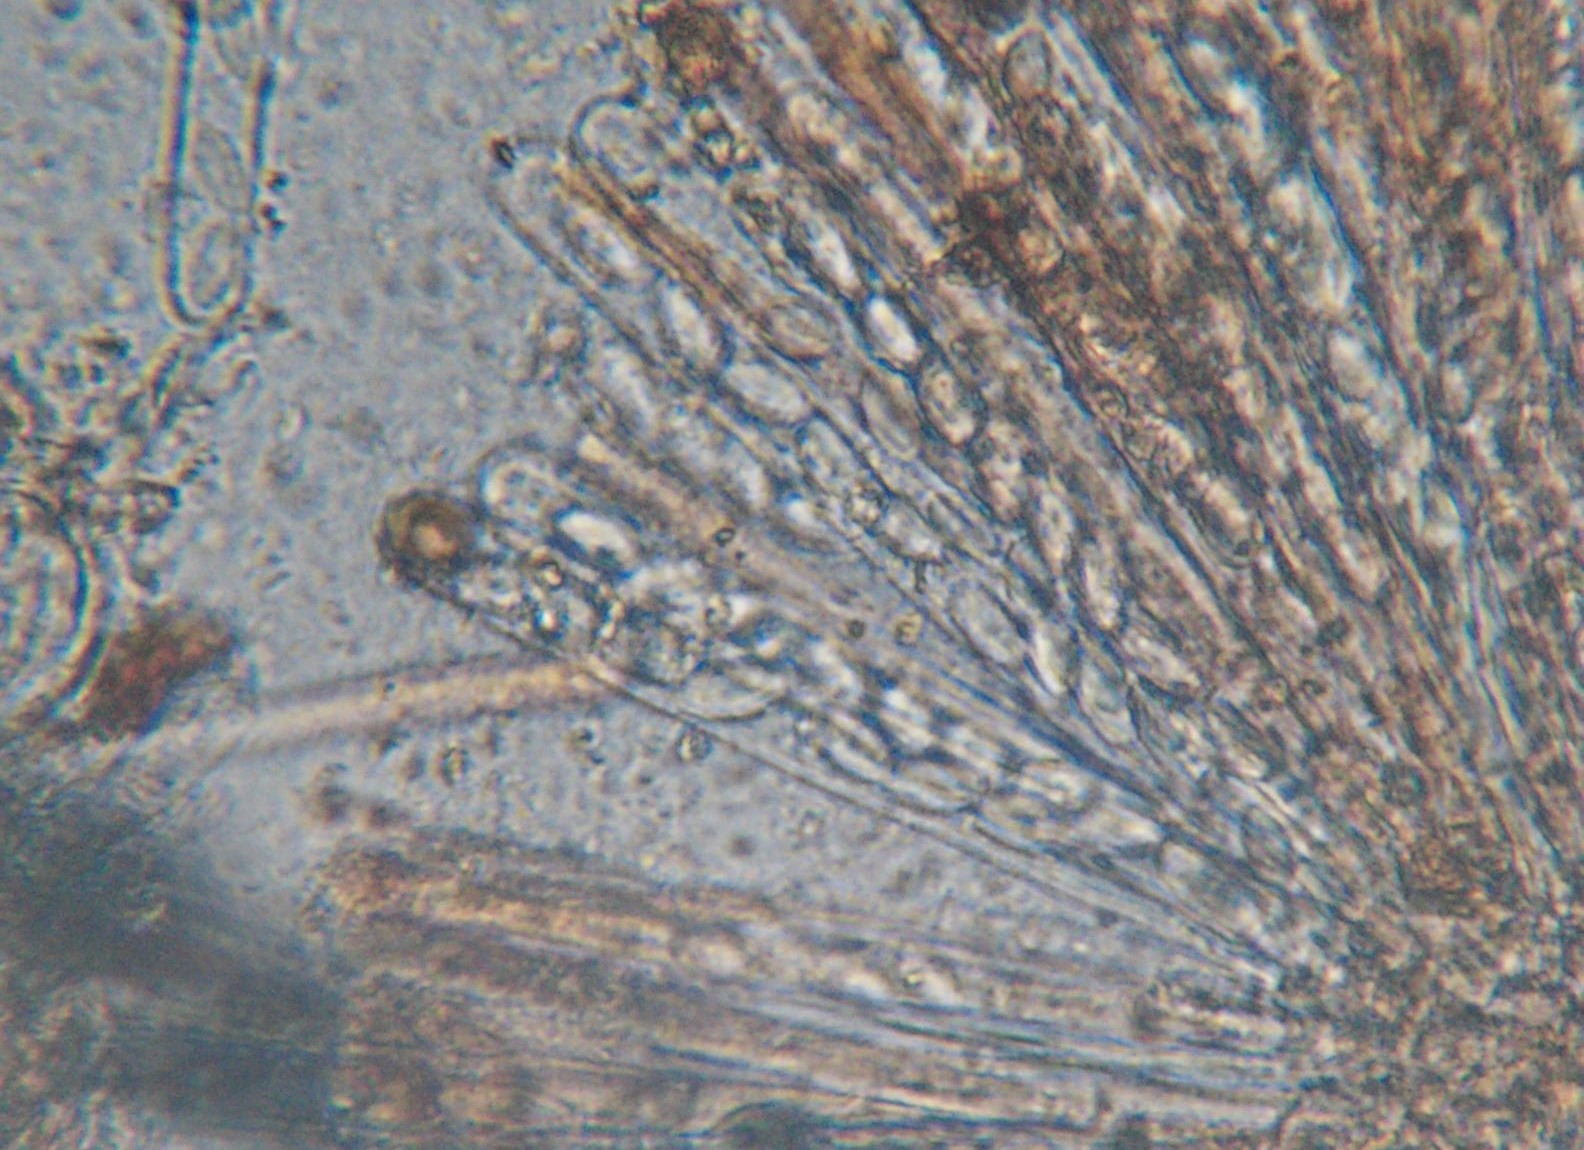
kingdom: Fungi
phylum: Ascomycota
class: Pezizomycetes
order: Pezizales
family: Pyronemataceae
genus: Cheilymenia
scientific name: Cheilymenia granulata
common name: møgbæger
